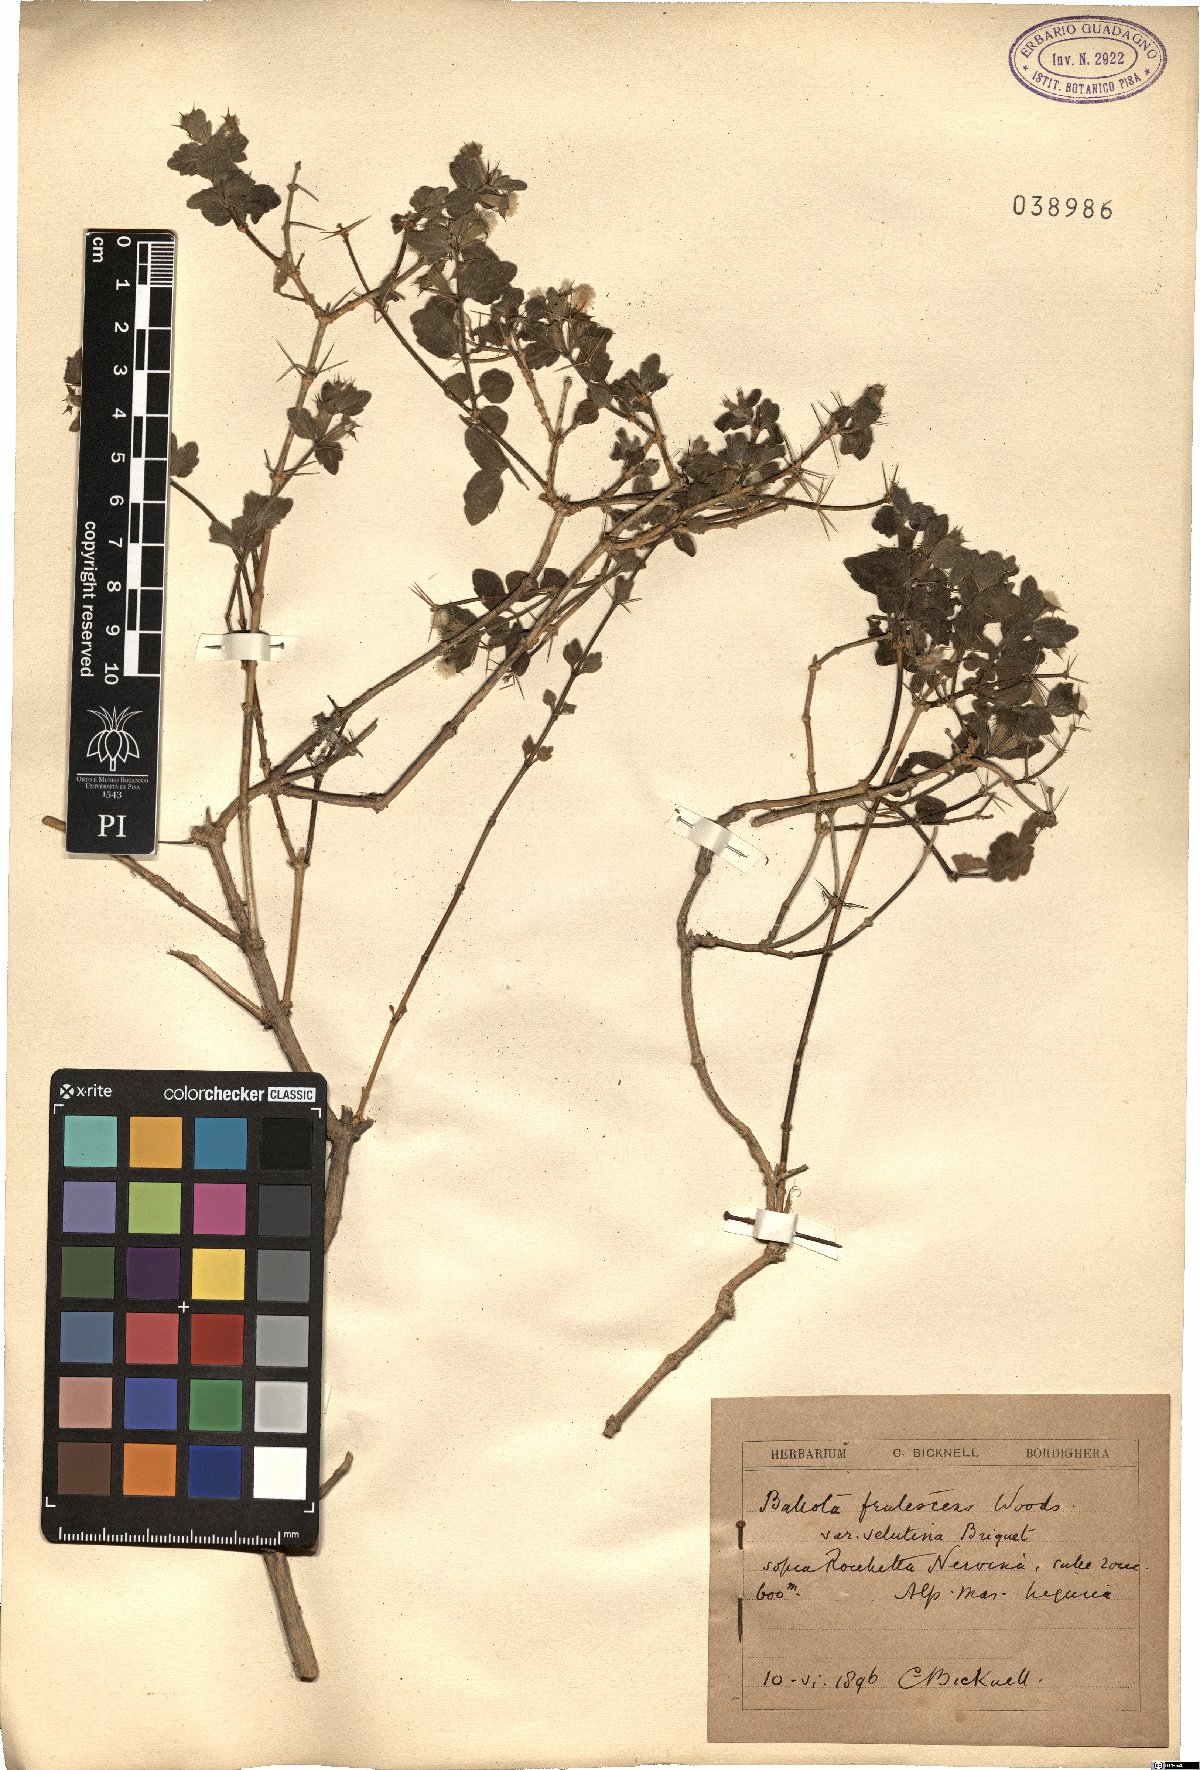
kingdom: Plantae
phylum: Tracheophyta
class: Magnoliopsida
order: Lamiales
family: Lamiaceae
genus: Acanthoprasium
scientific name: Acanthoprasium frutescens
